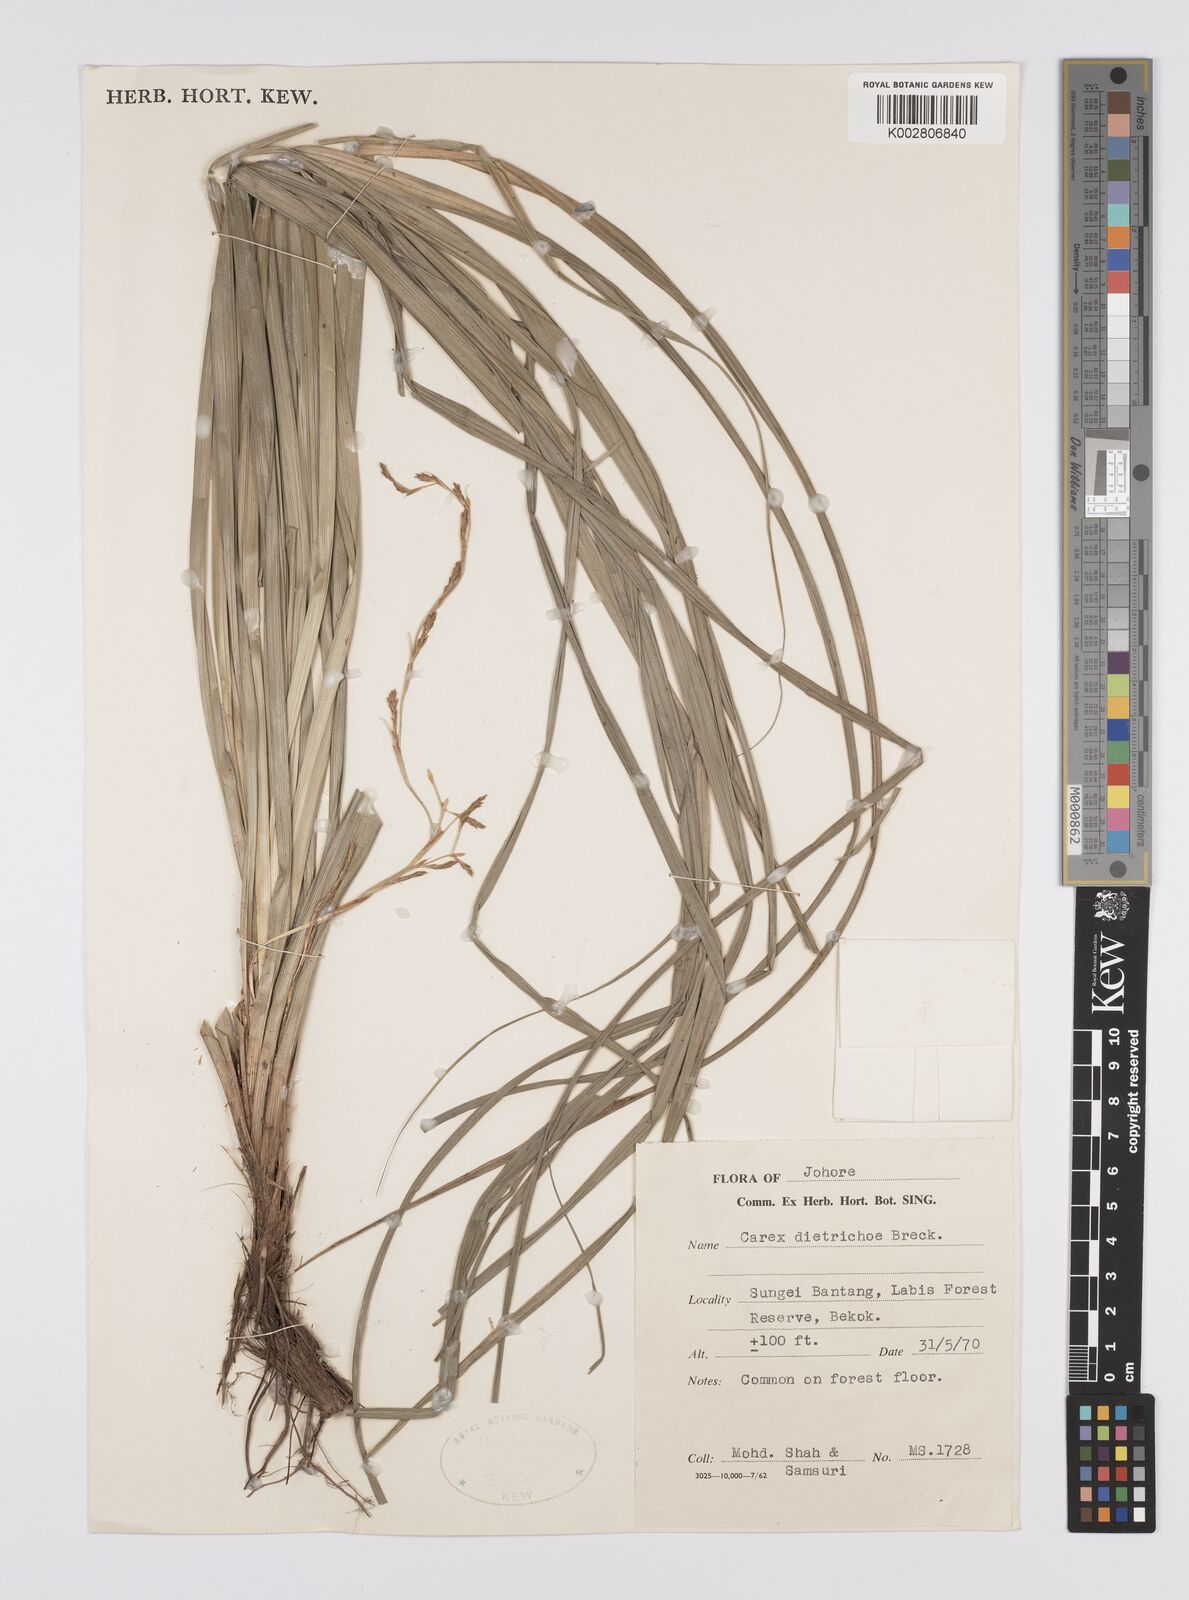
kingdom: Plantae
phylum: Tracheophyta
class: Liliopsida
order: Poales
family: Cyperaceae
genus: Carex
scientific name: Carex indica
